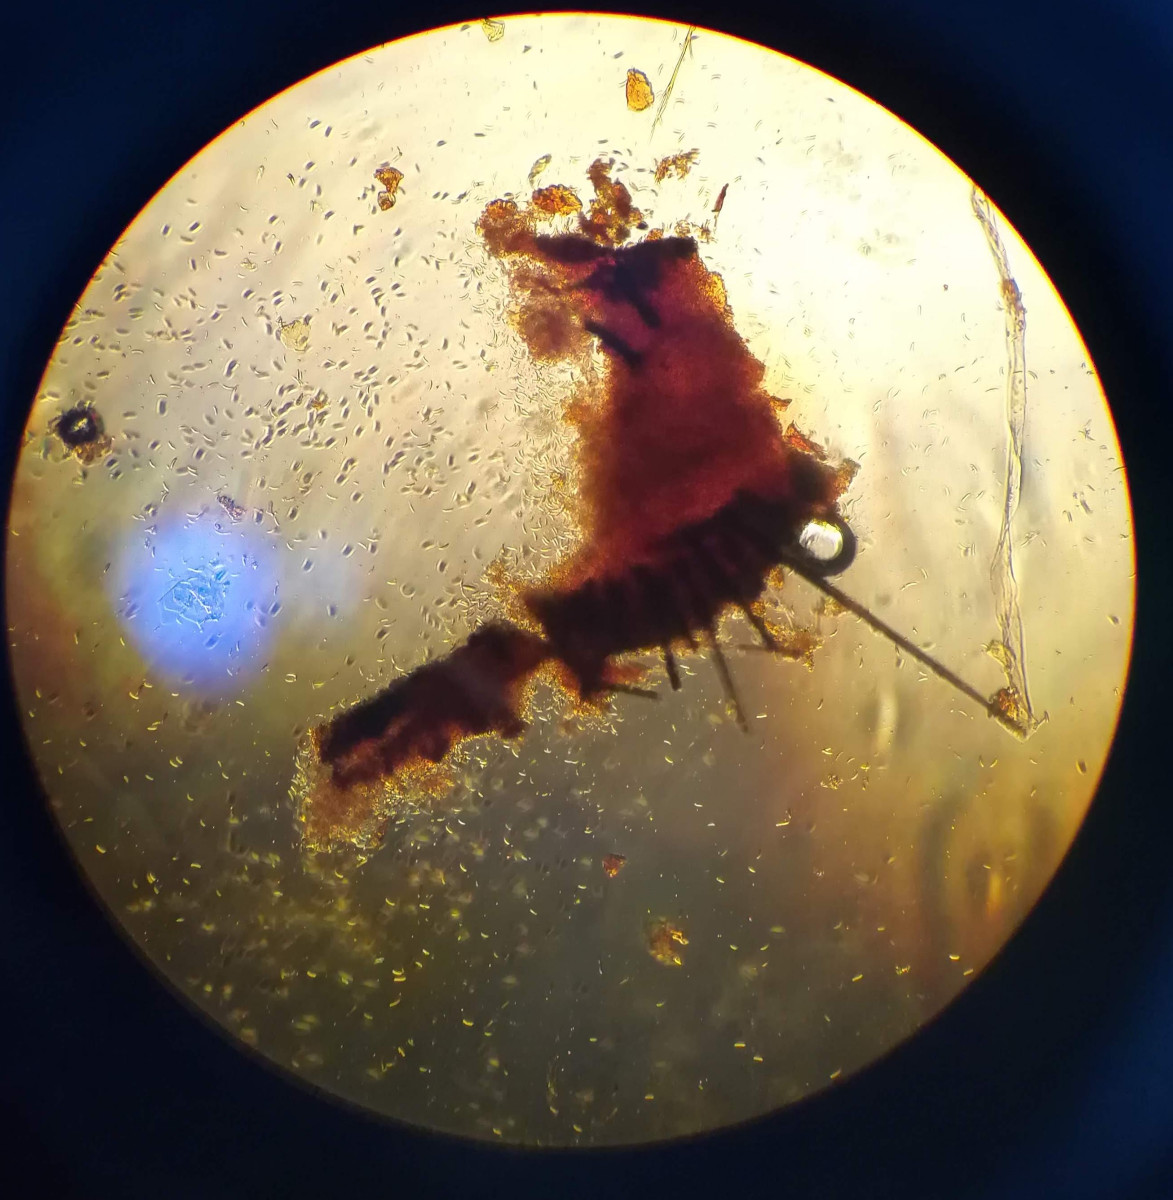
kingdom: Fungi
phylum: Ascomycota
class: Sordariomycetes
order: Chaetosphaeriales
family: Chaetosphaeriaceae
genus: Pseudolachnea
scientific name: Pseudolachnea hispidula
